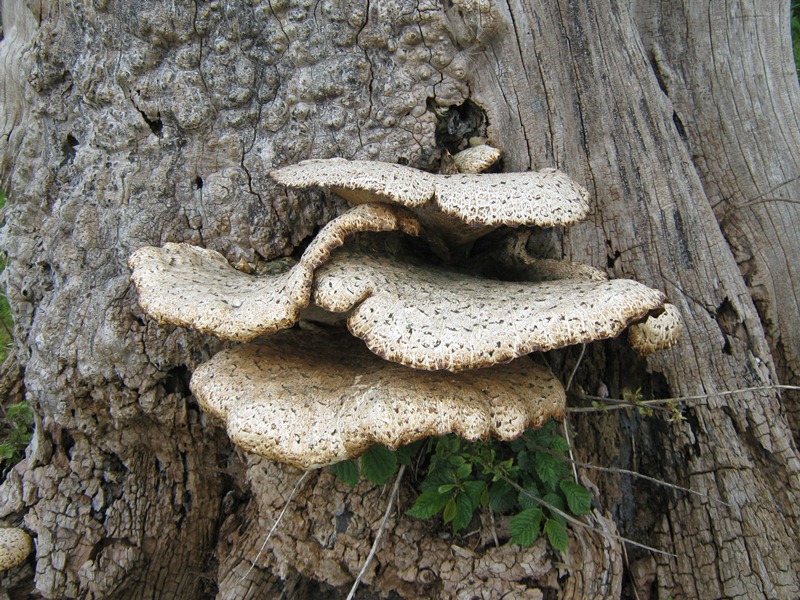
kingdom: Fungi
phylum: Basidiomycota
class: Agaricomycetes
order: Polyporales
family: Polyporaceae
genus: Cerioporus
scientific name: Cerioporus squamosus
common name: skællet stilkporesvamp
